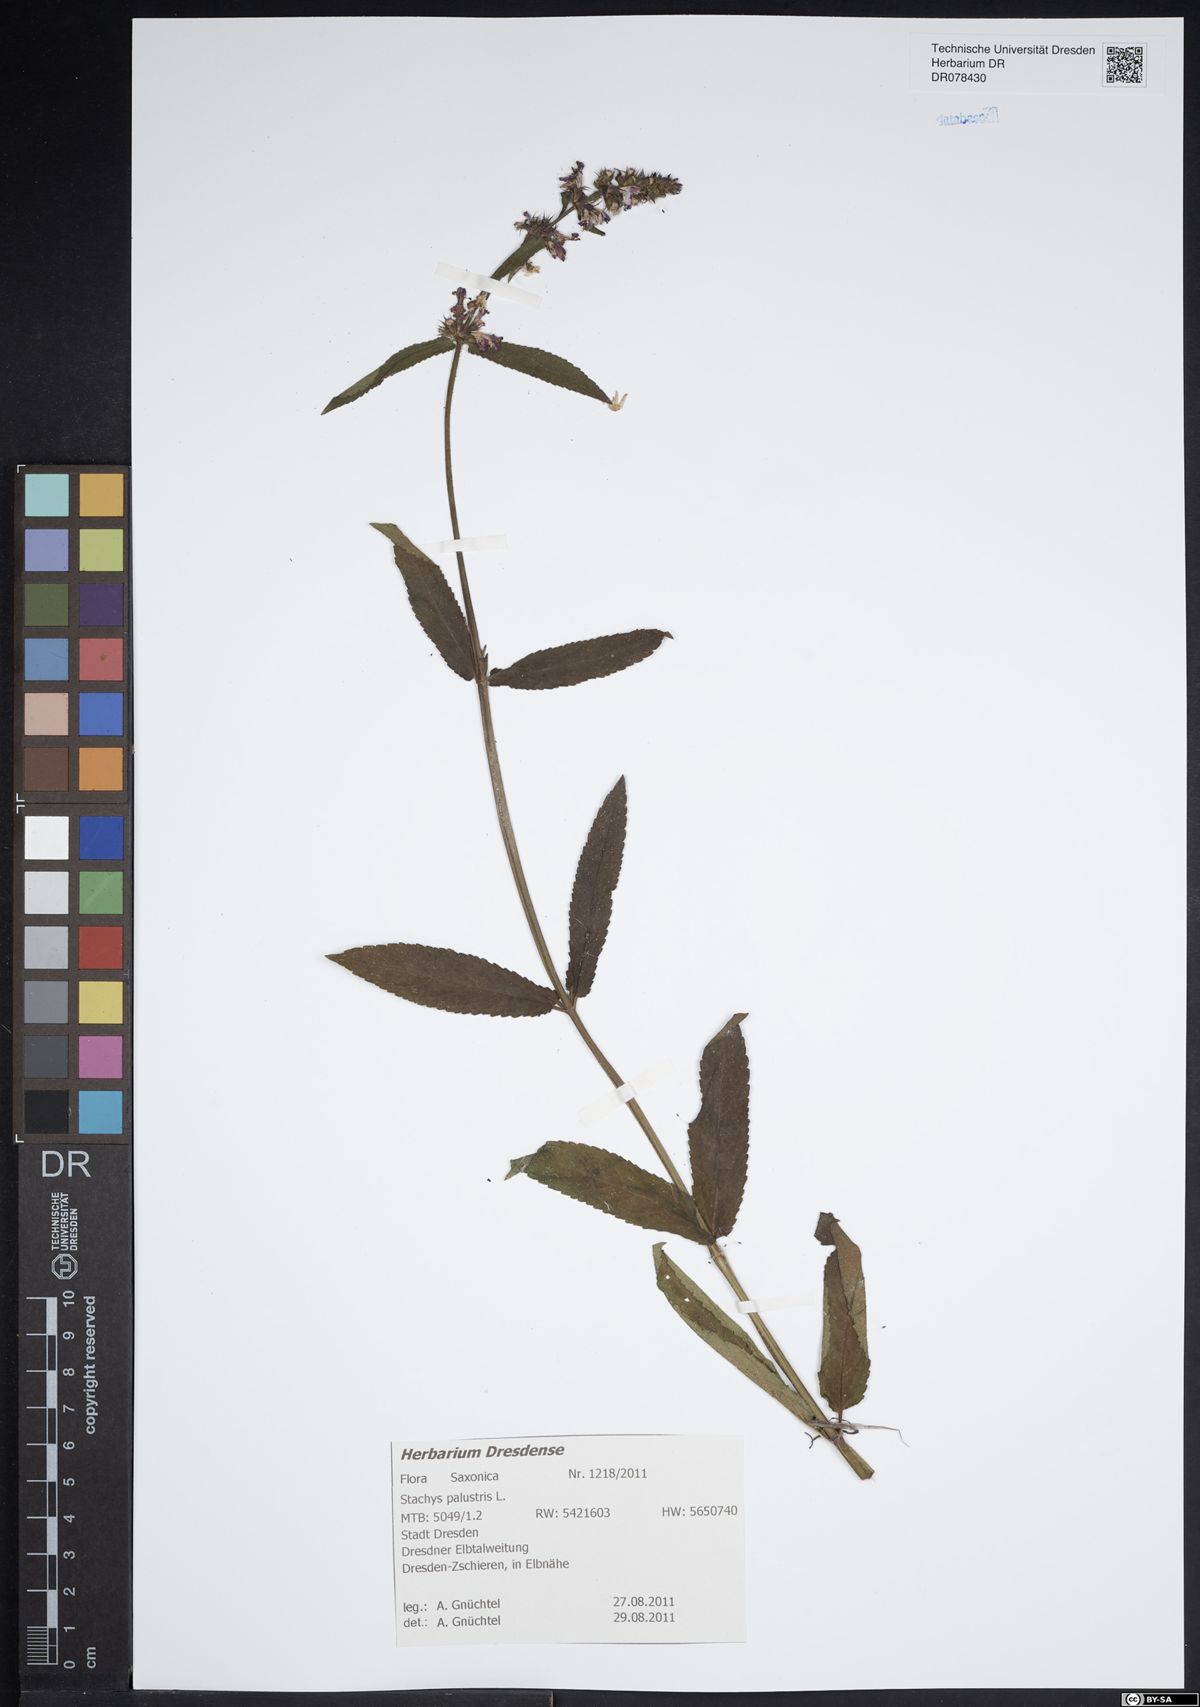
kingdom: Plantae
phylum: Tracheophyta
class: Magnoliopsida
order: Lamiales
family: Lamiaceae
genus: Stachys
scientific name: Stachys palustris
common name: Marsh woundwort
